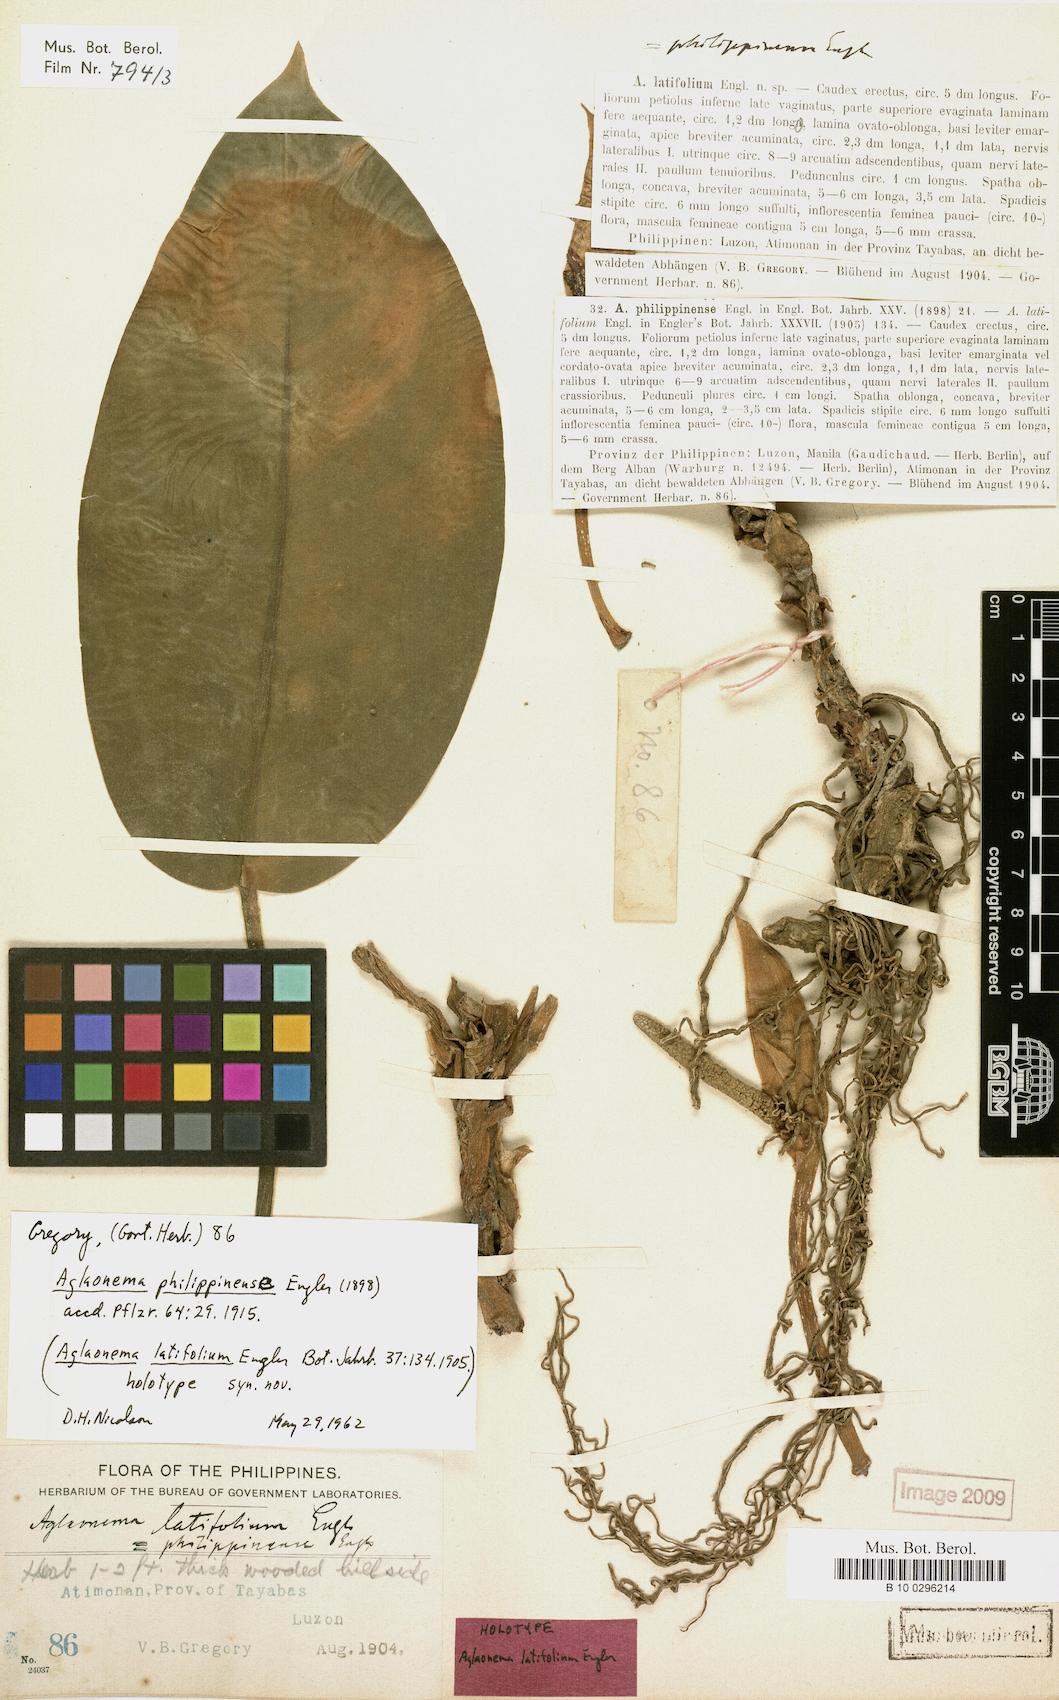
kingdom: Plantae
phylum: Tracheophyta
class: Liliopsida
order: Alismatales
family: Araceae
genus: Aglaonema
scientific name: Aglaonema philippinense
